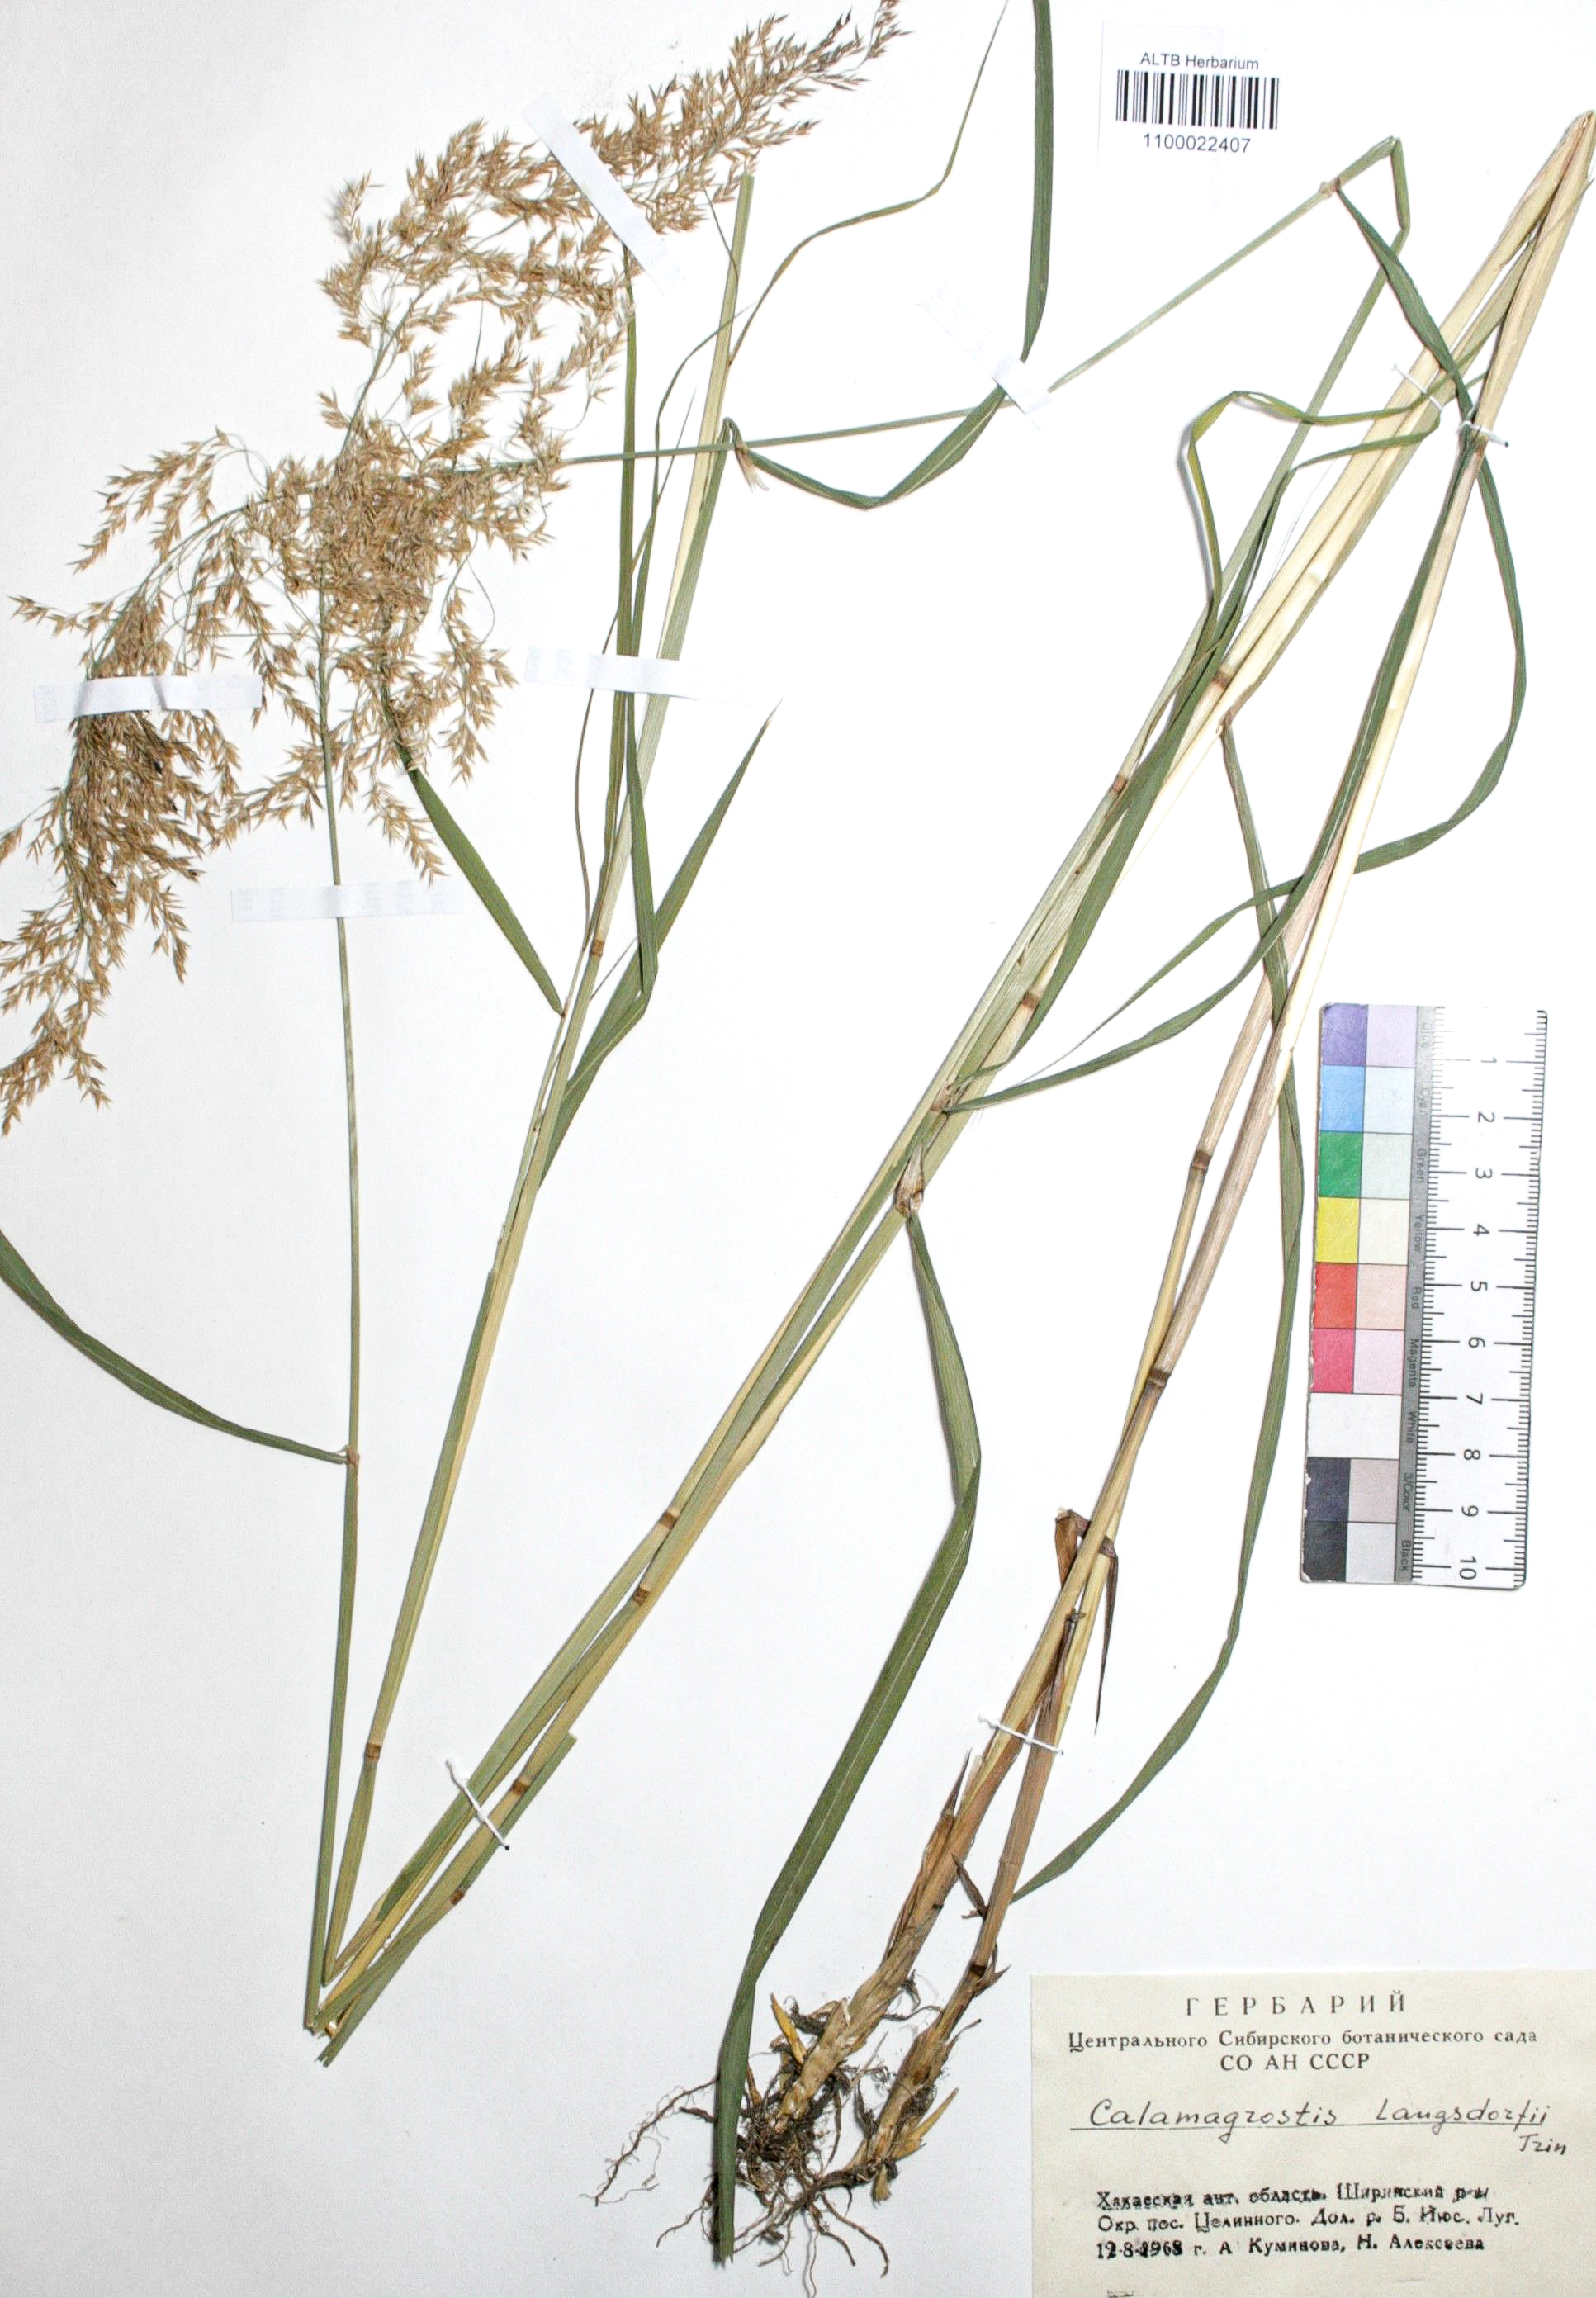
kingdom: Plantae
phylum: Tracheophyta
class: Liliopsida
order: Poales
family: Poaceae
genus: Calamagrostis
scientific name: Calamagrostis purpurea
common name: Scandinavian small-reed
